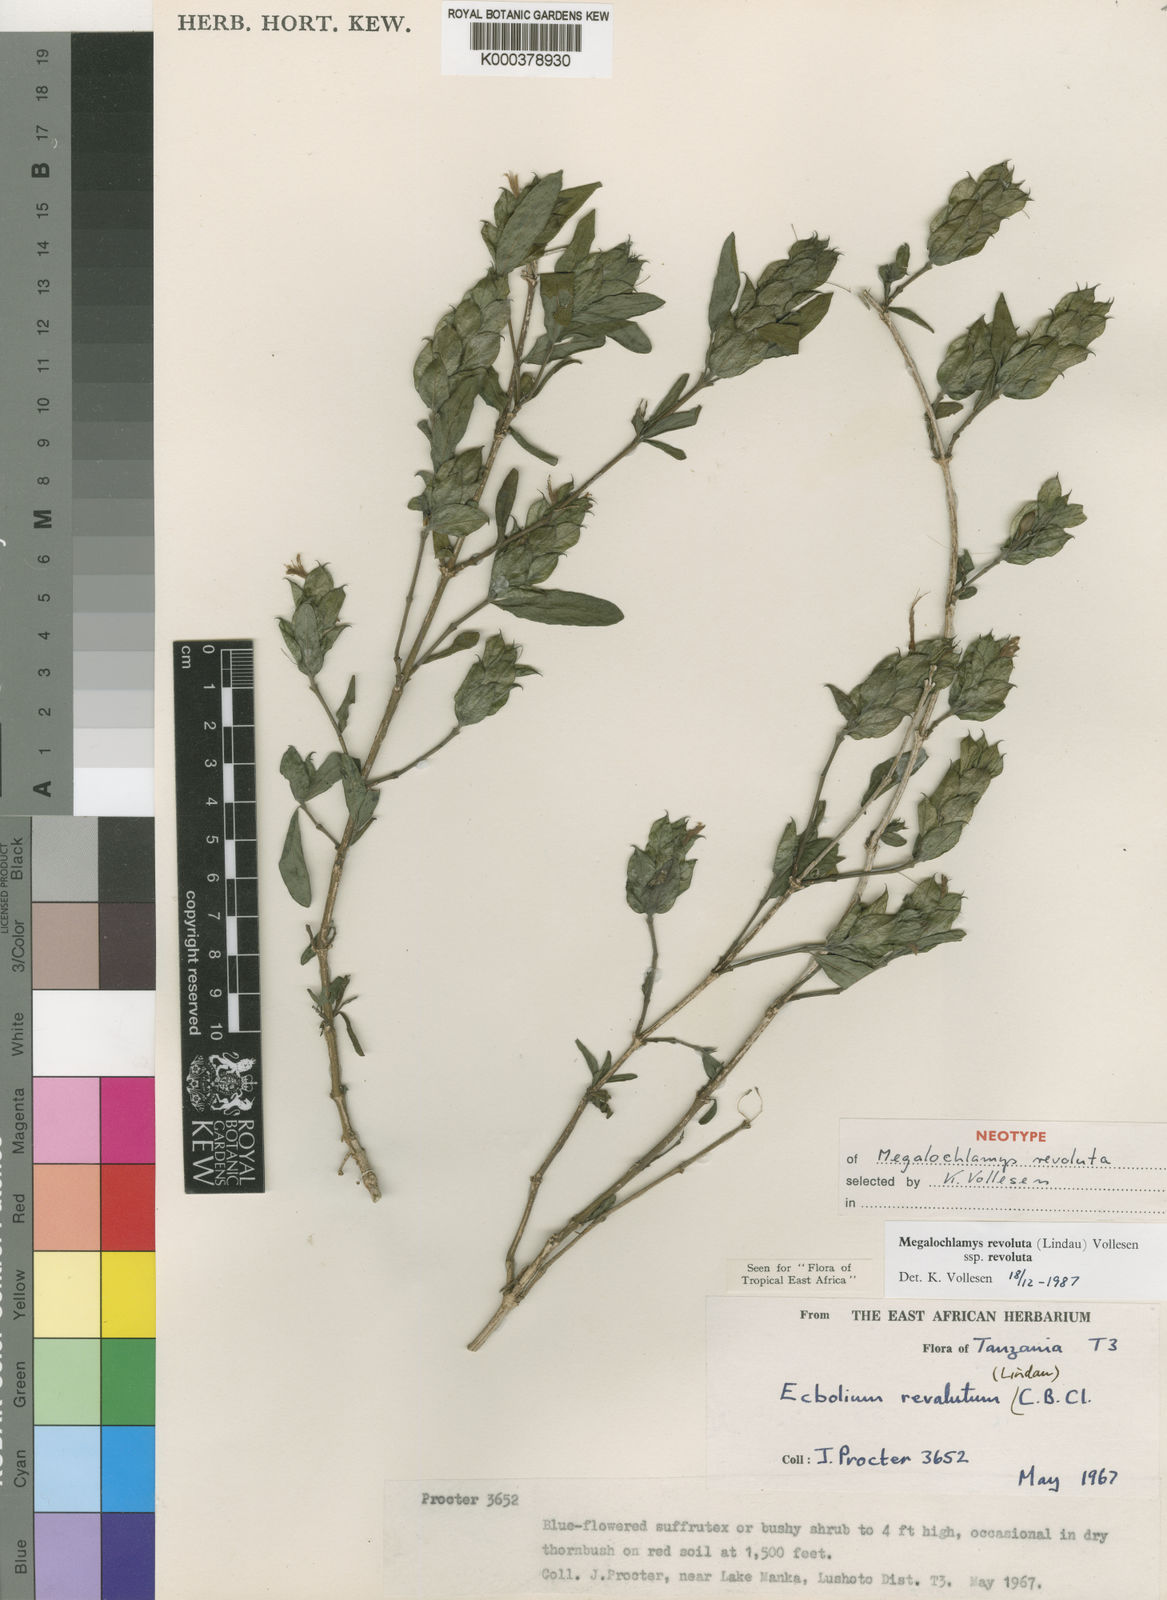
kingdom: Plantae
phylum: Tracheophyta
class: Magnoliopsida
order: Lamiales
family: Acanthaceae
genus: Megalochlamys
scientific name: Megalochlamys revoluta
